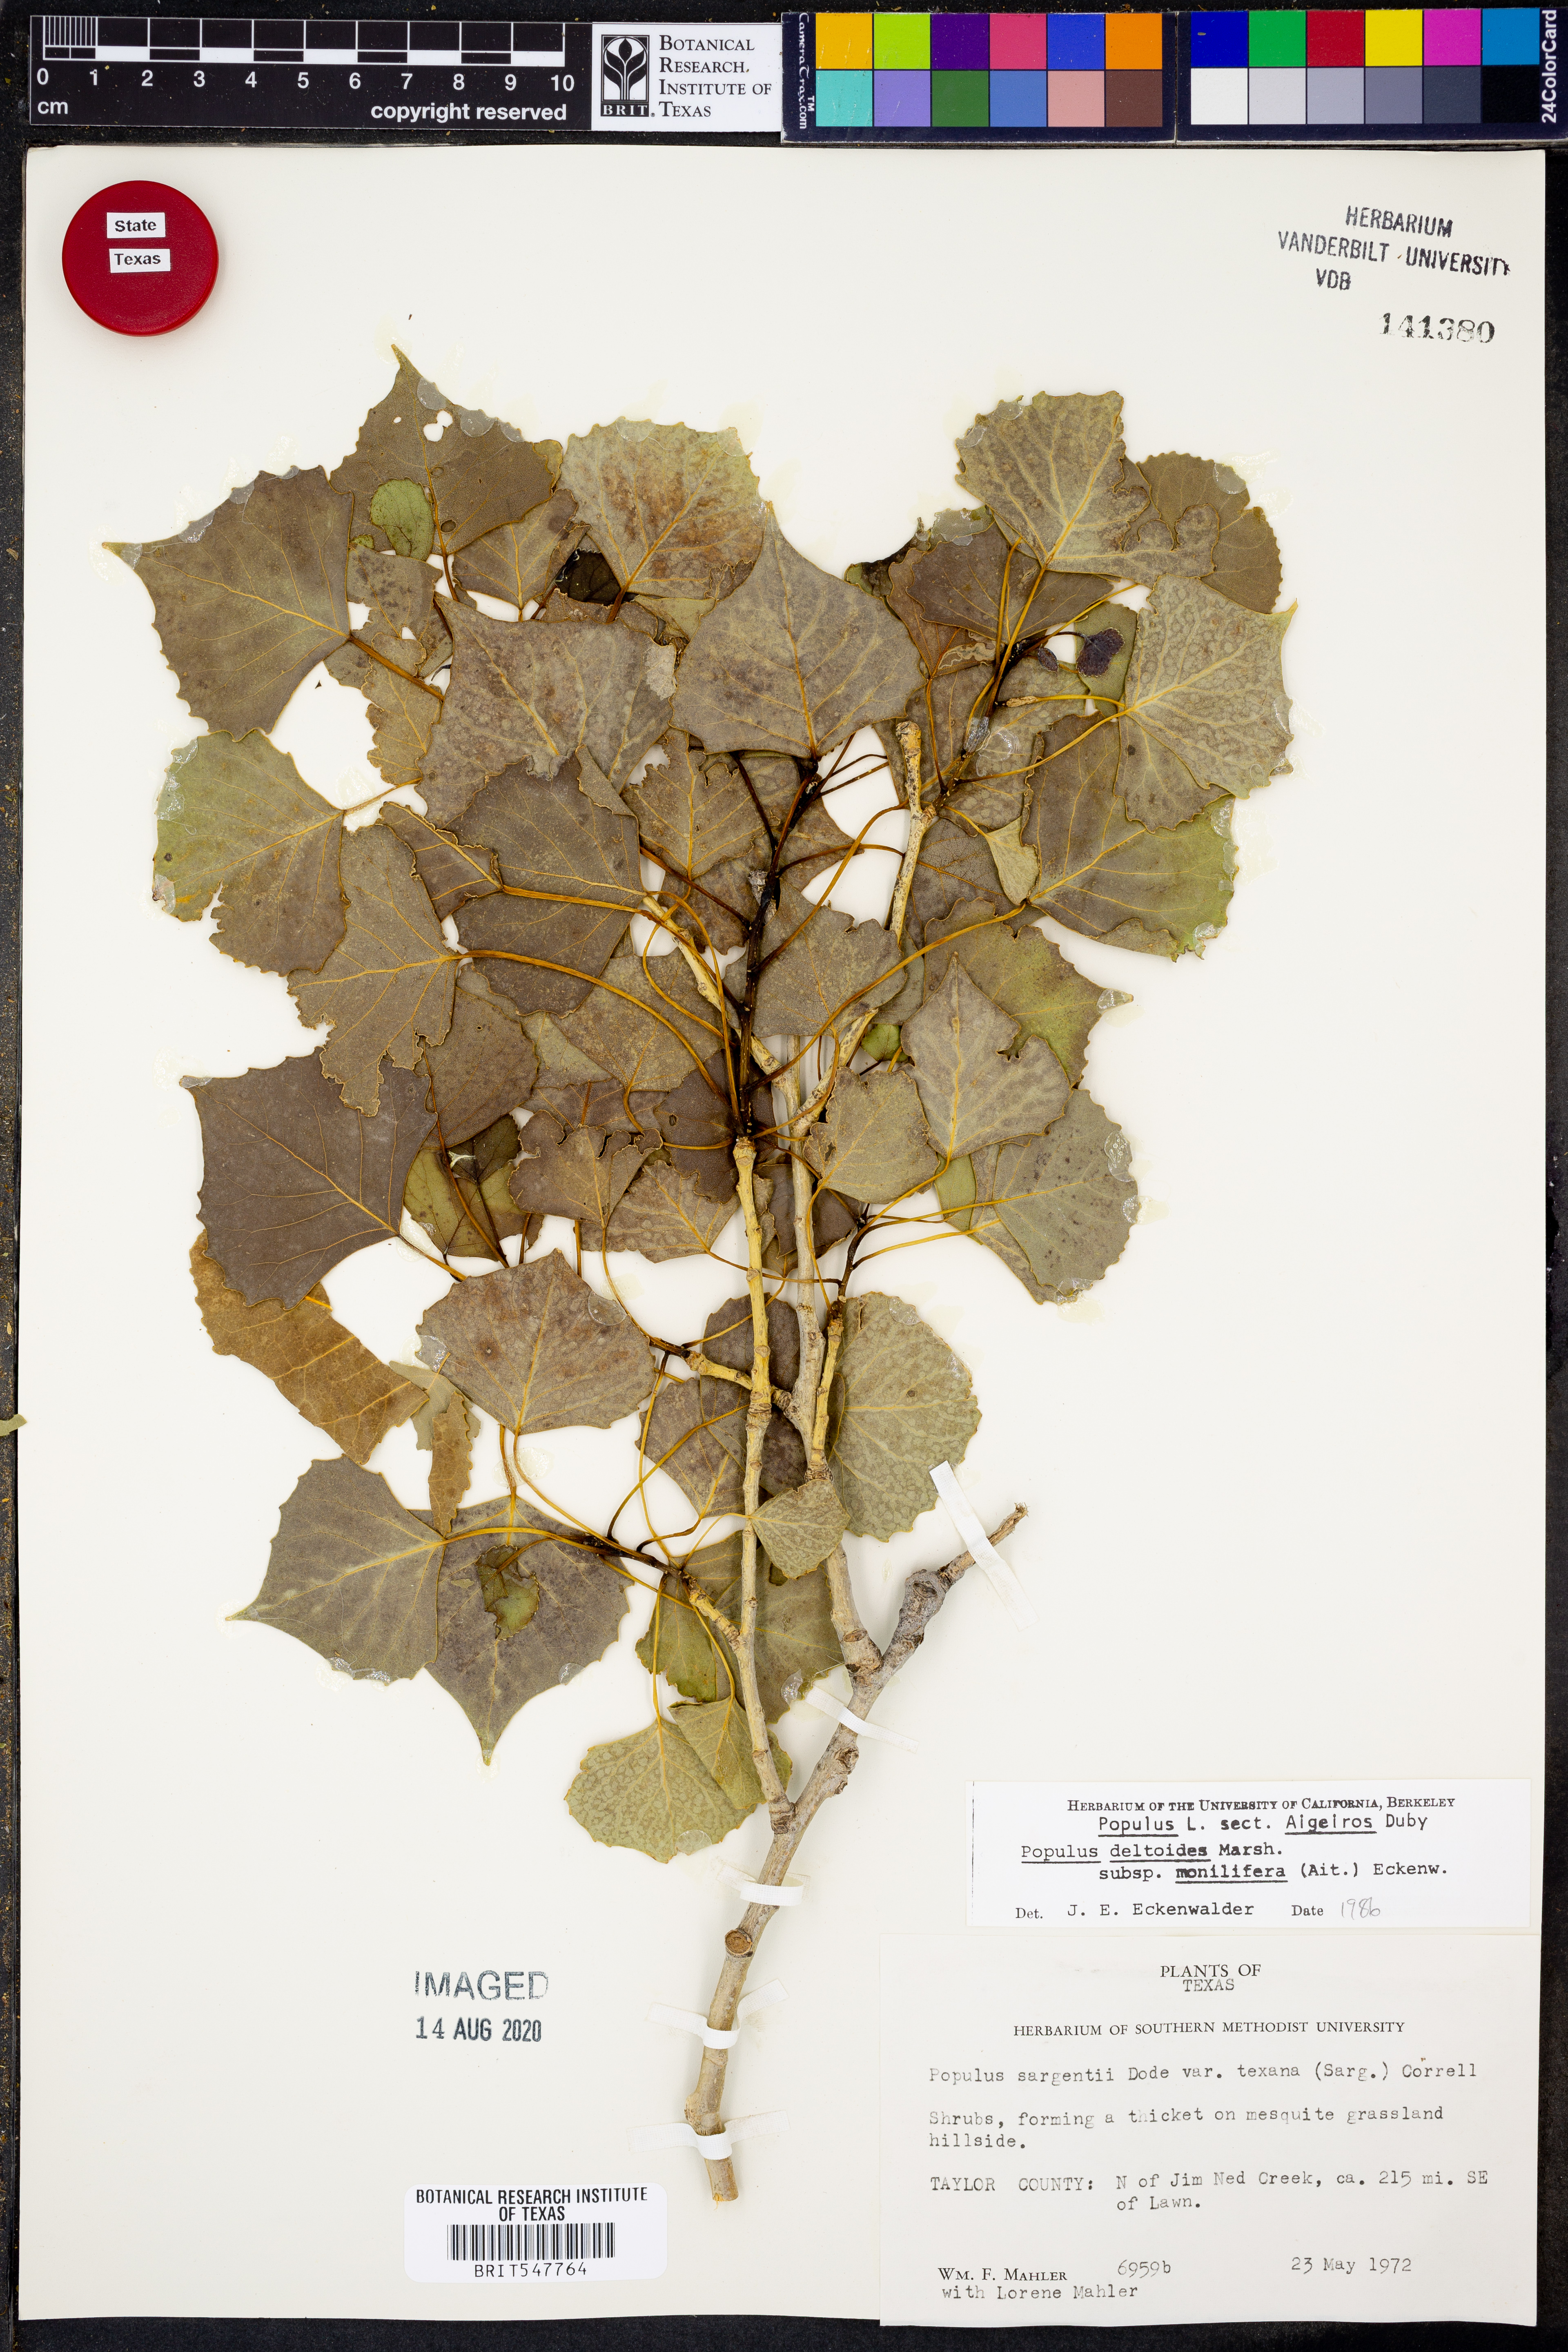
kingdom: Plantae
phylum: Tracheophyta
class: Magnoliopsida
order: Malpighiales
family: Salicaceae
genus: Populus
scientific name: Populus deltoides
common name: Eastern cottonwood
